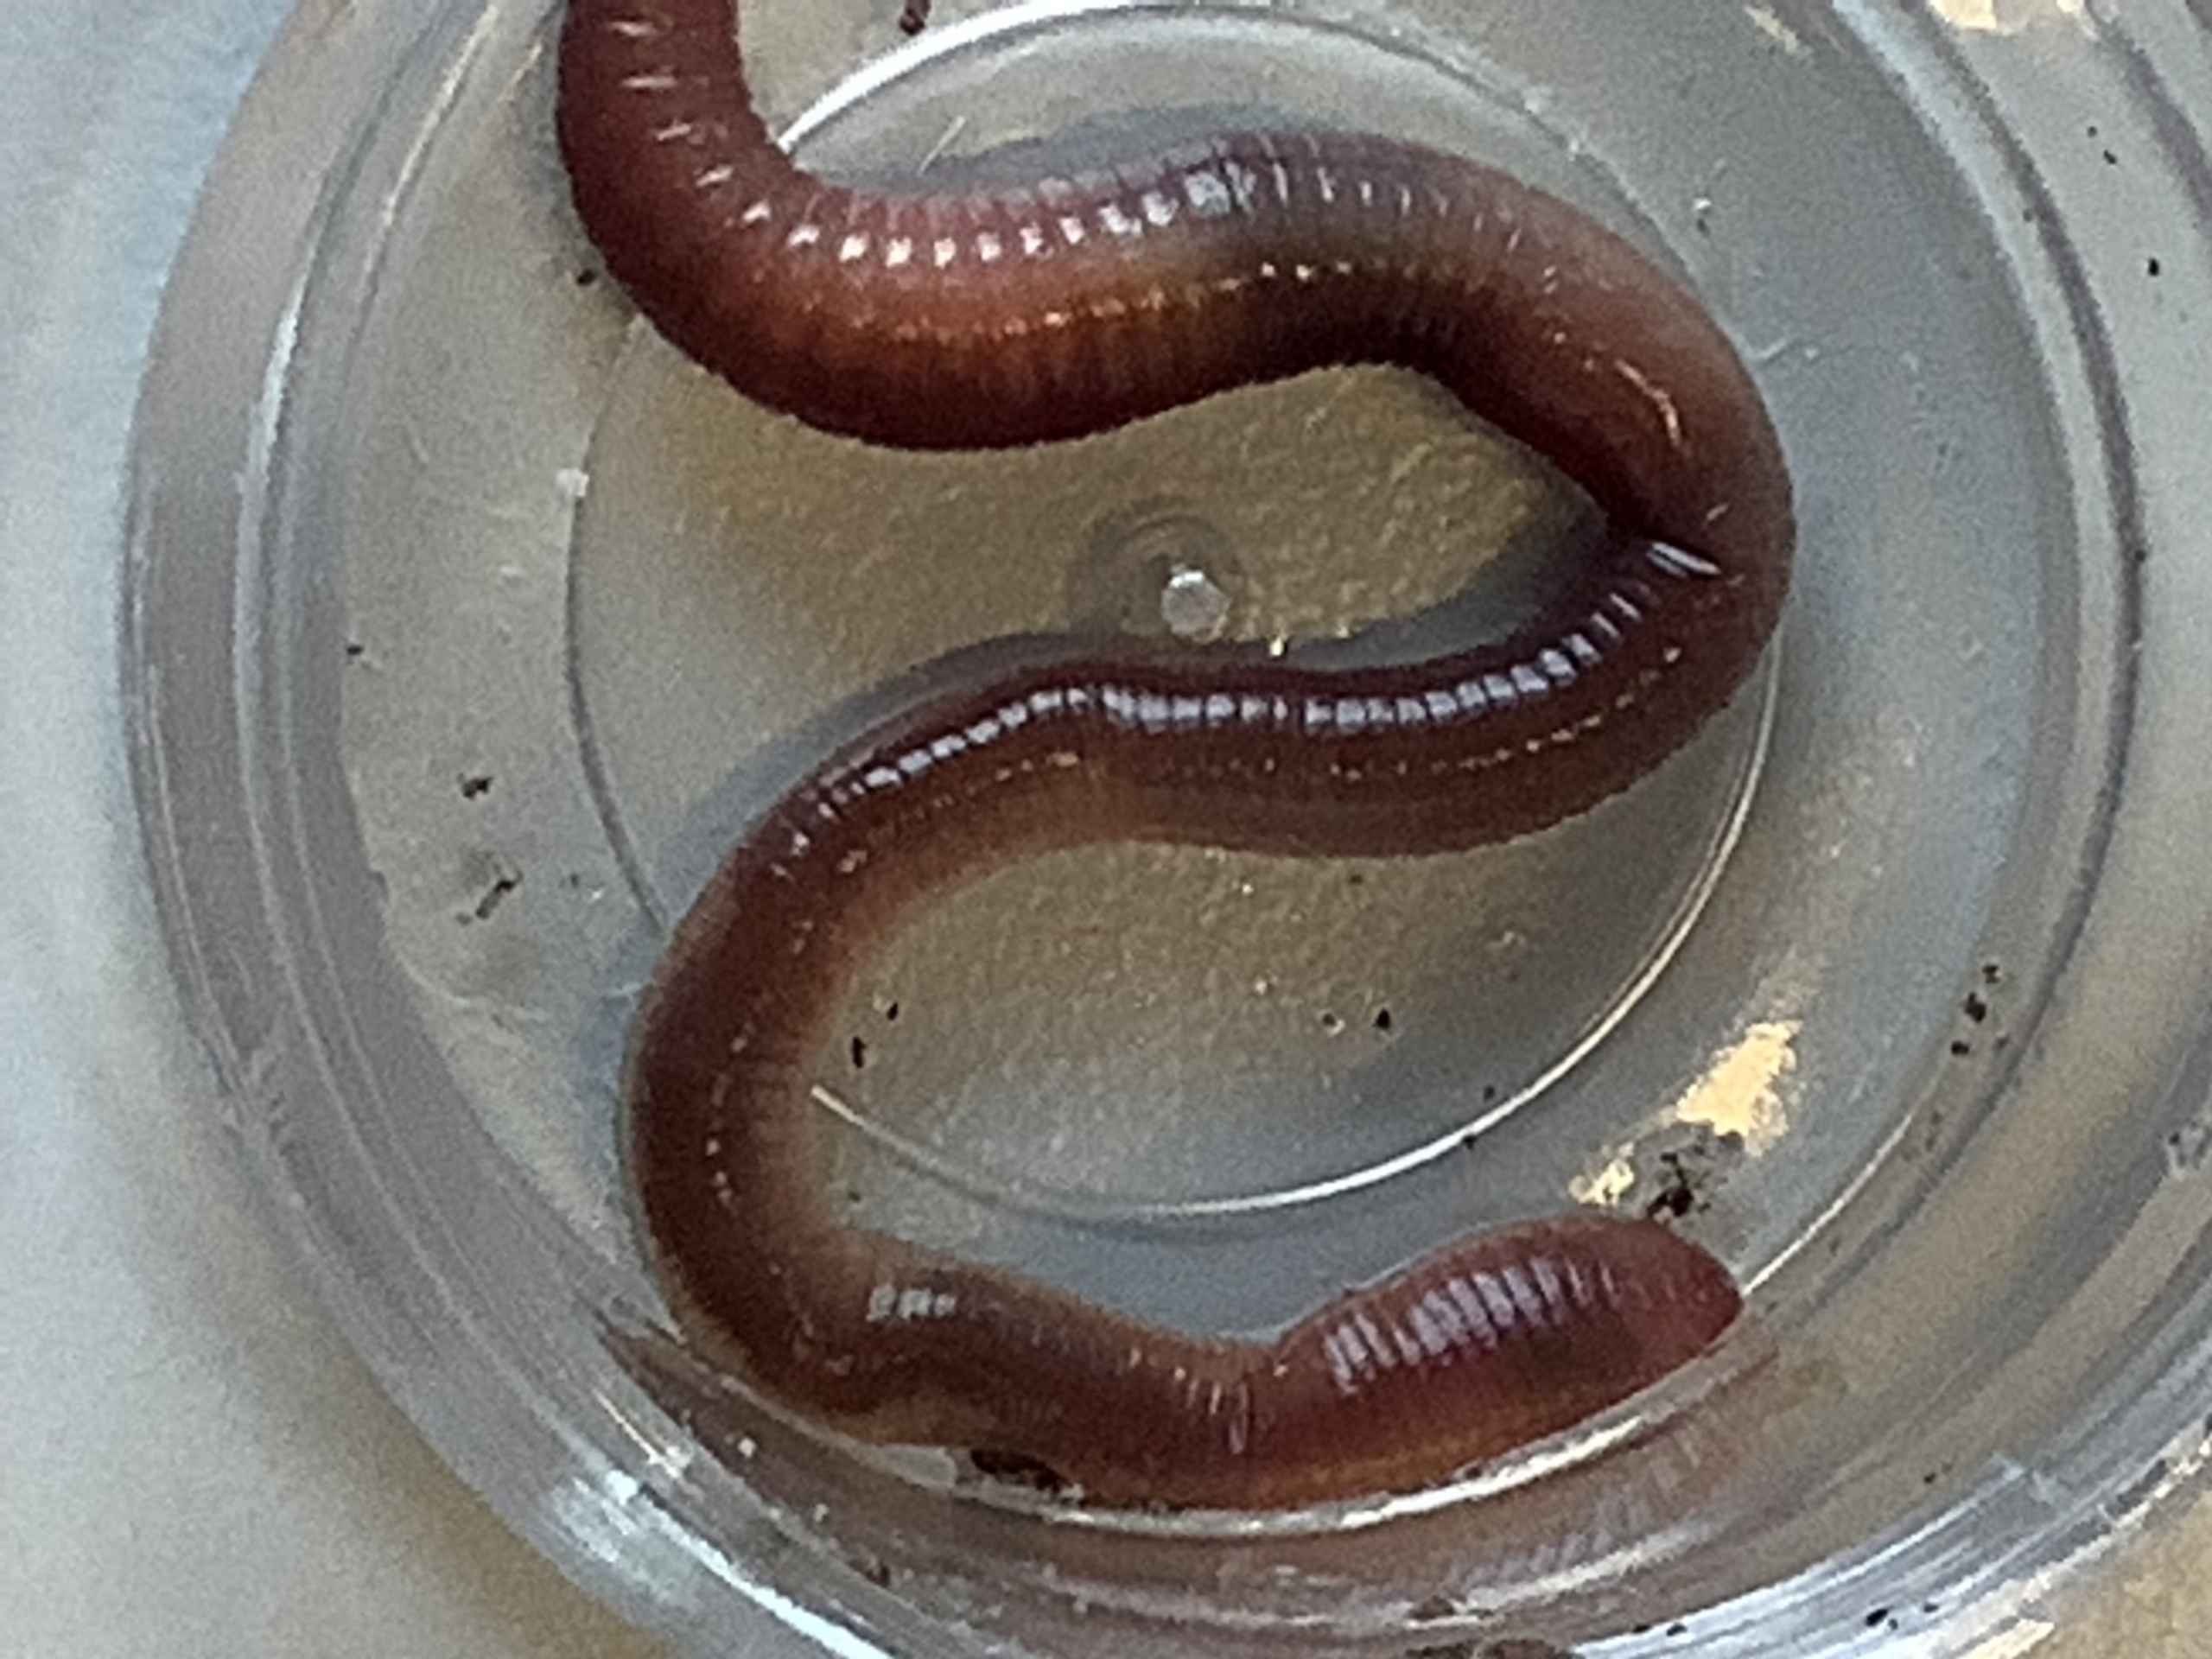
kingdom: Animalia
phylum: Annelida
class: Clitellata
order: Crassiclitellata
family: Lumbricidae
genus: Lumbricus
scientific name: Lumbricus terrestris
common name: Stor regnorm
